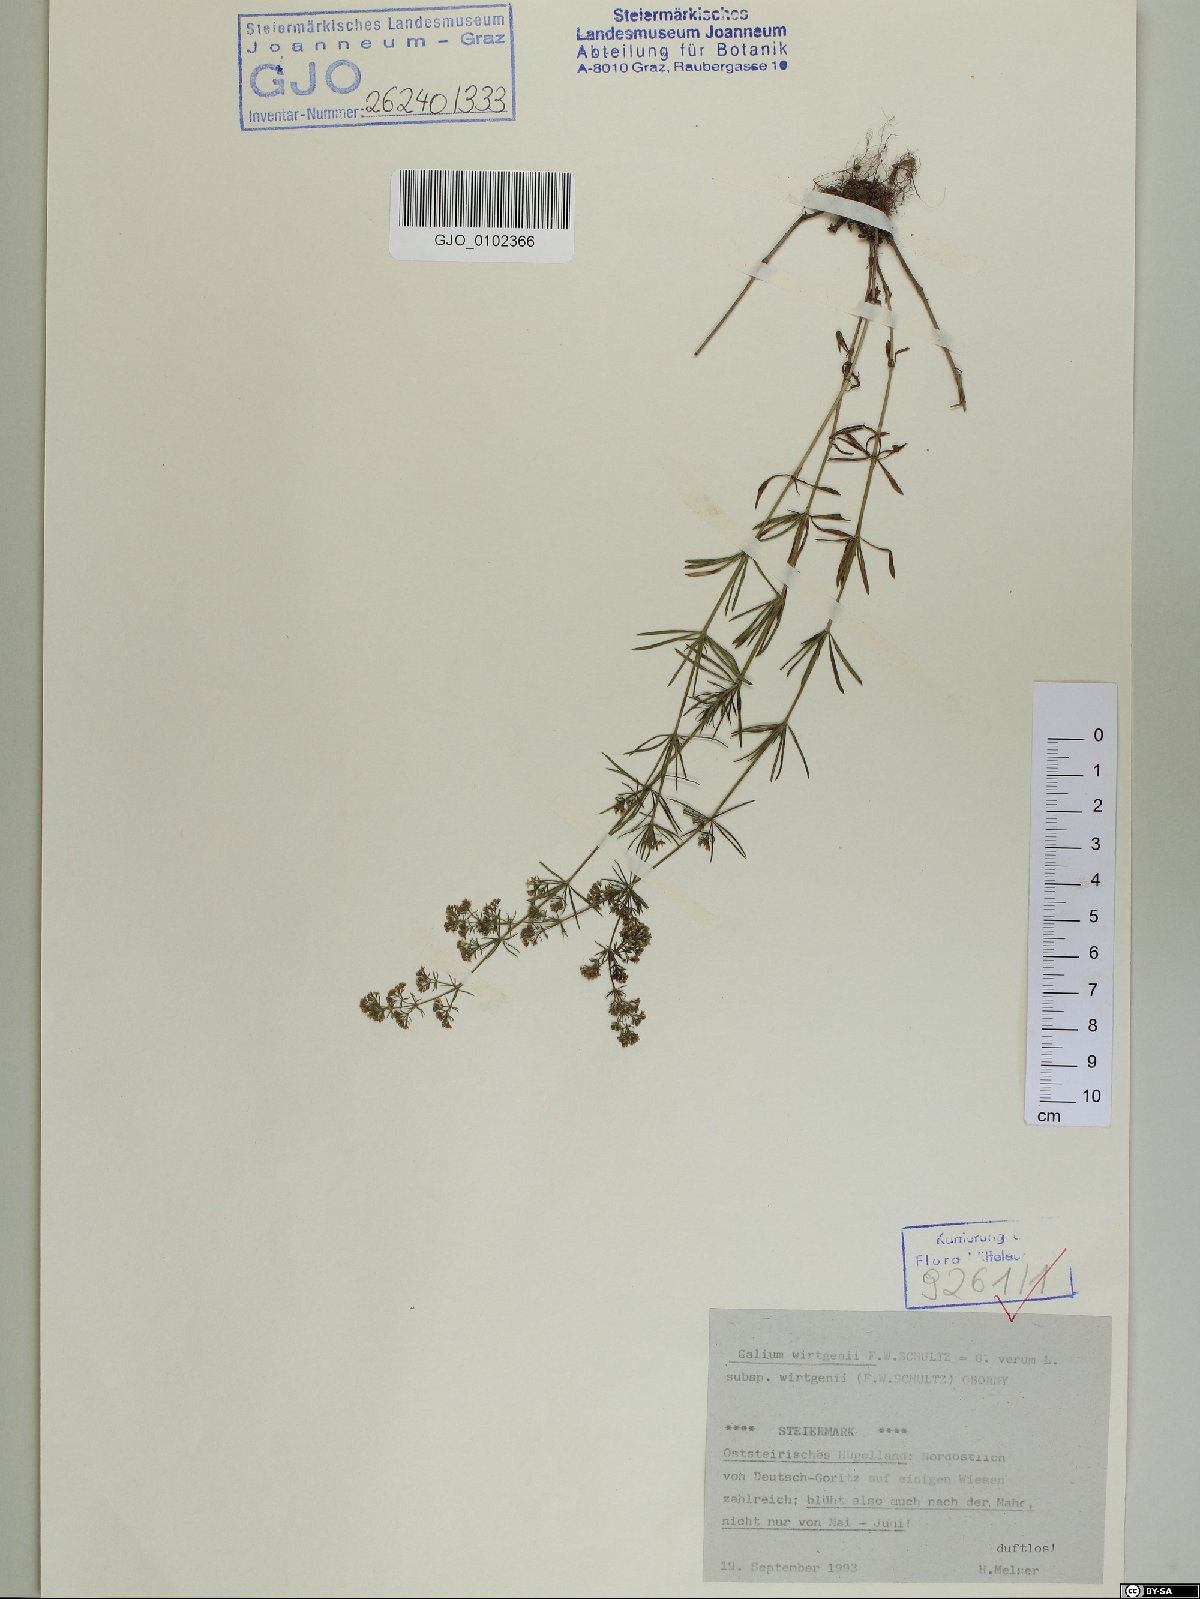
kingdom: Plantae
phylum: Tracheophyta
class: Magnoliopsida
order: Gentianales
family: Rubiaceae
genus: Galium
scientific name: Galium verum
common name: Lady's bedstraw
